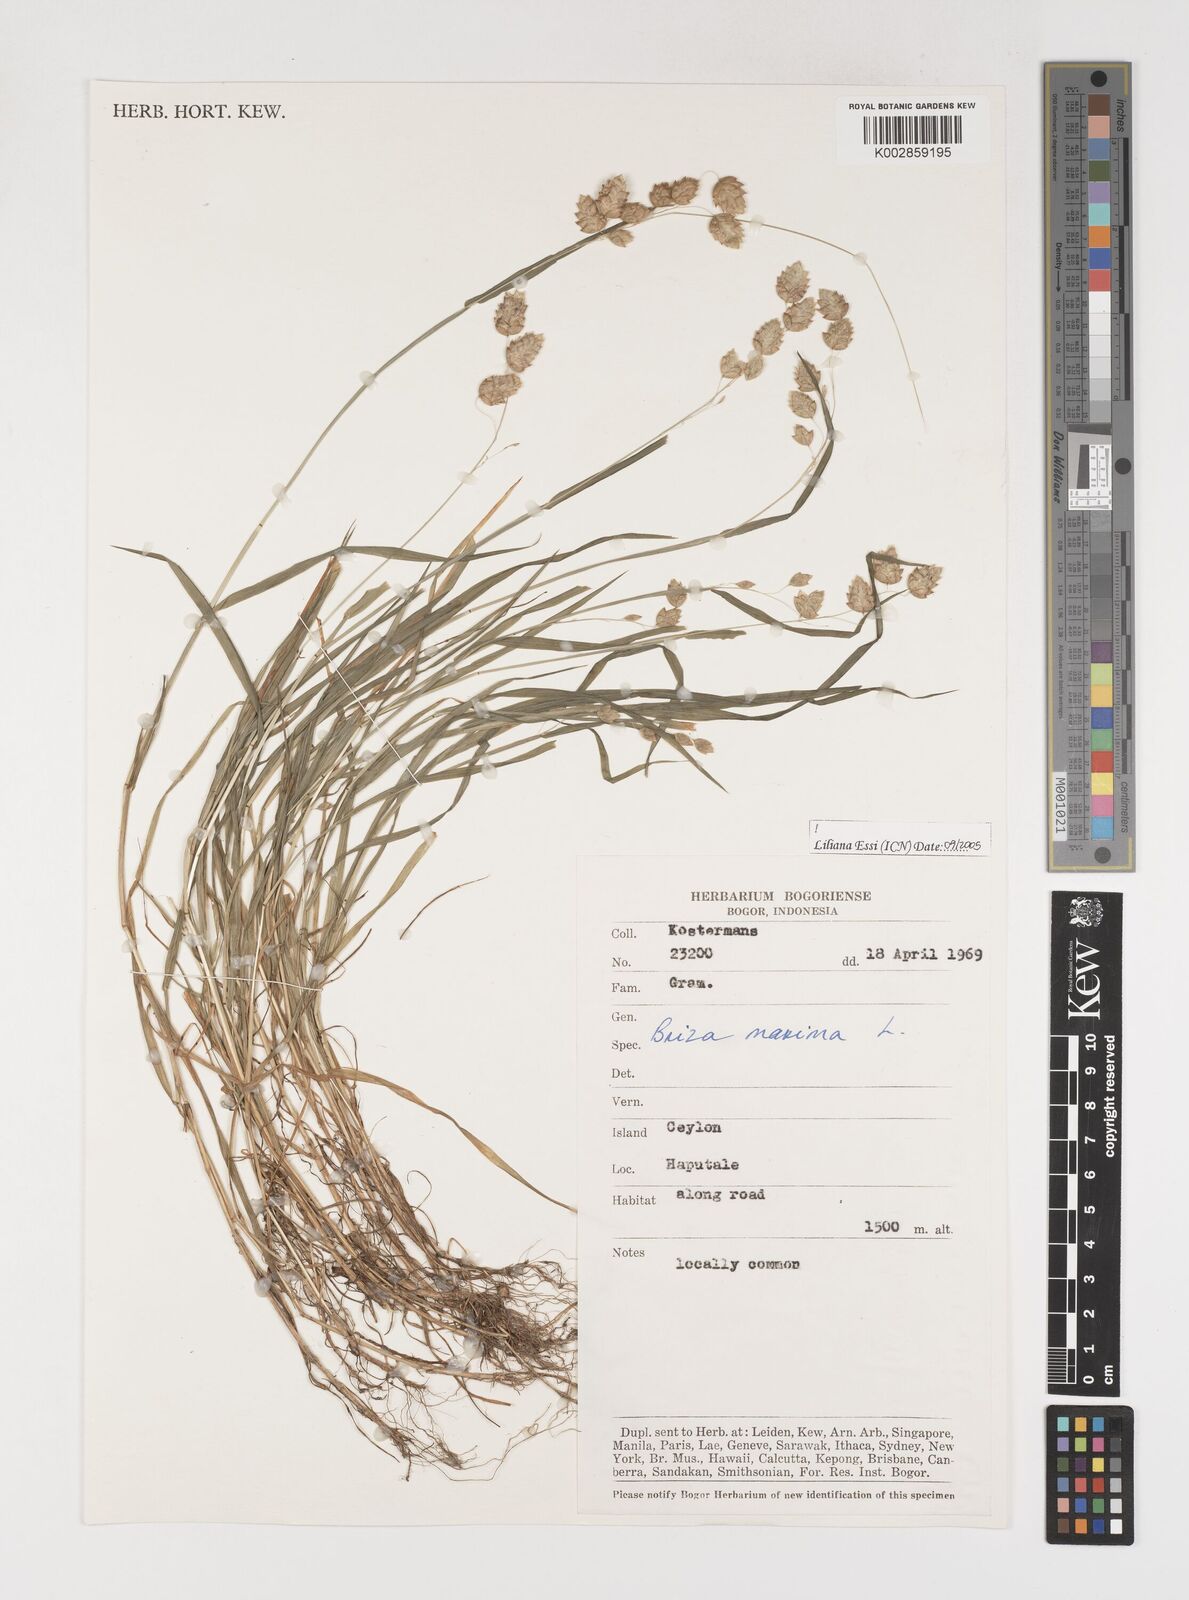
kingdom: Plantae
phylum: Tracheophyta
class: Liliopsida
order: Poales
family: Poaceae
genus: Briza
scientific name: Briza maxima
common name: Big quakinggrass
